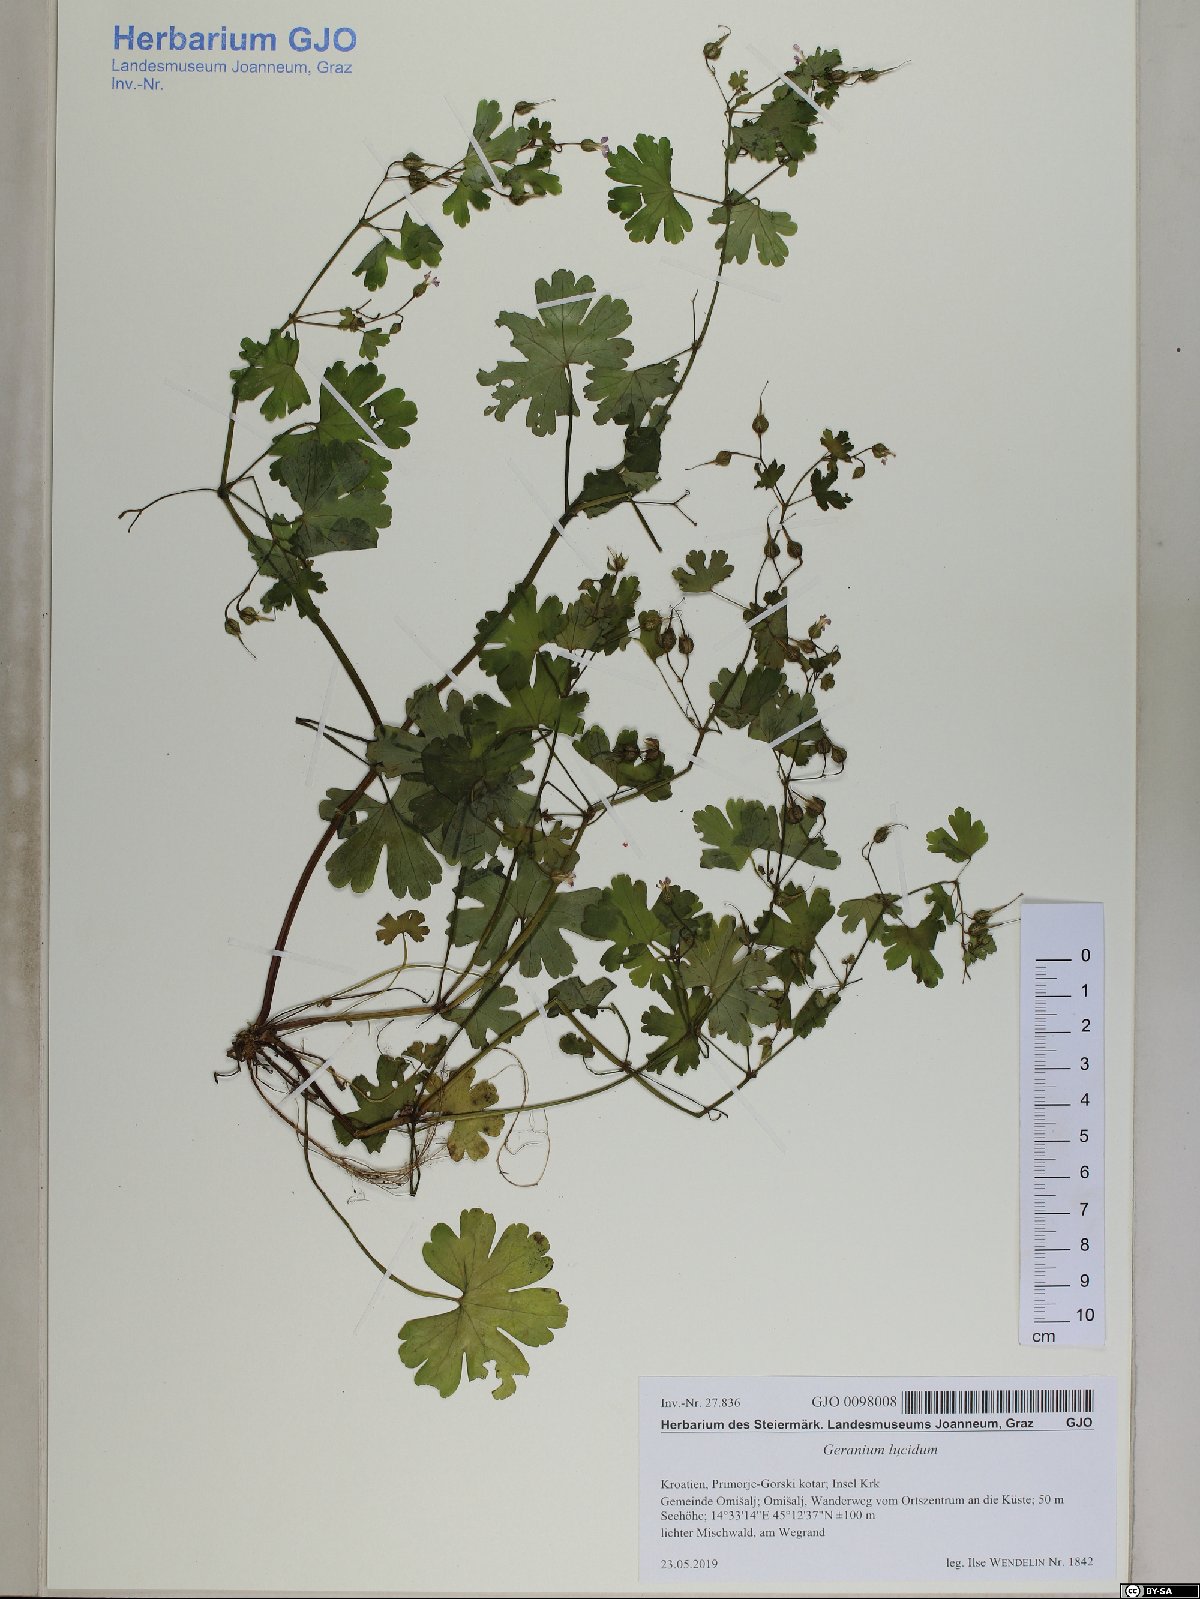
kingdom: Plantae
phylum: Tracheophyta
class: Magnoliopsida
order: Geraniales
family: Geraniaceae
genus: Geranium
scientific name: Geranium lucidum
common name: Shining crane's-bill
